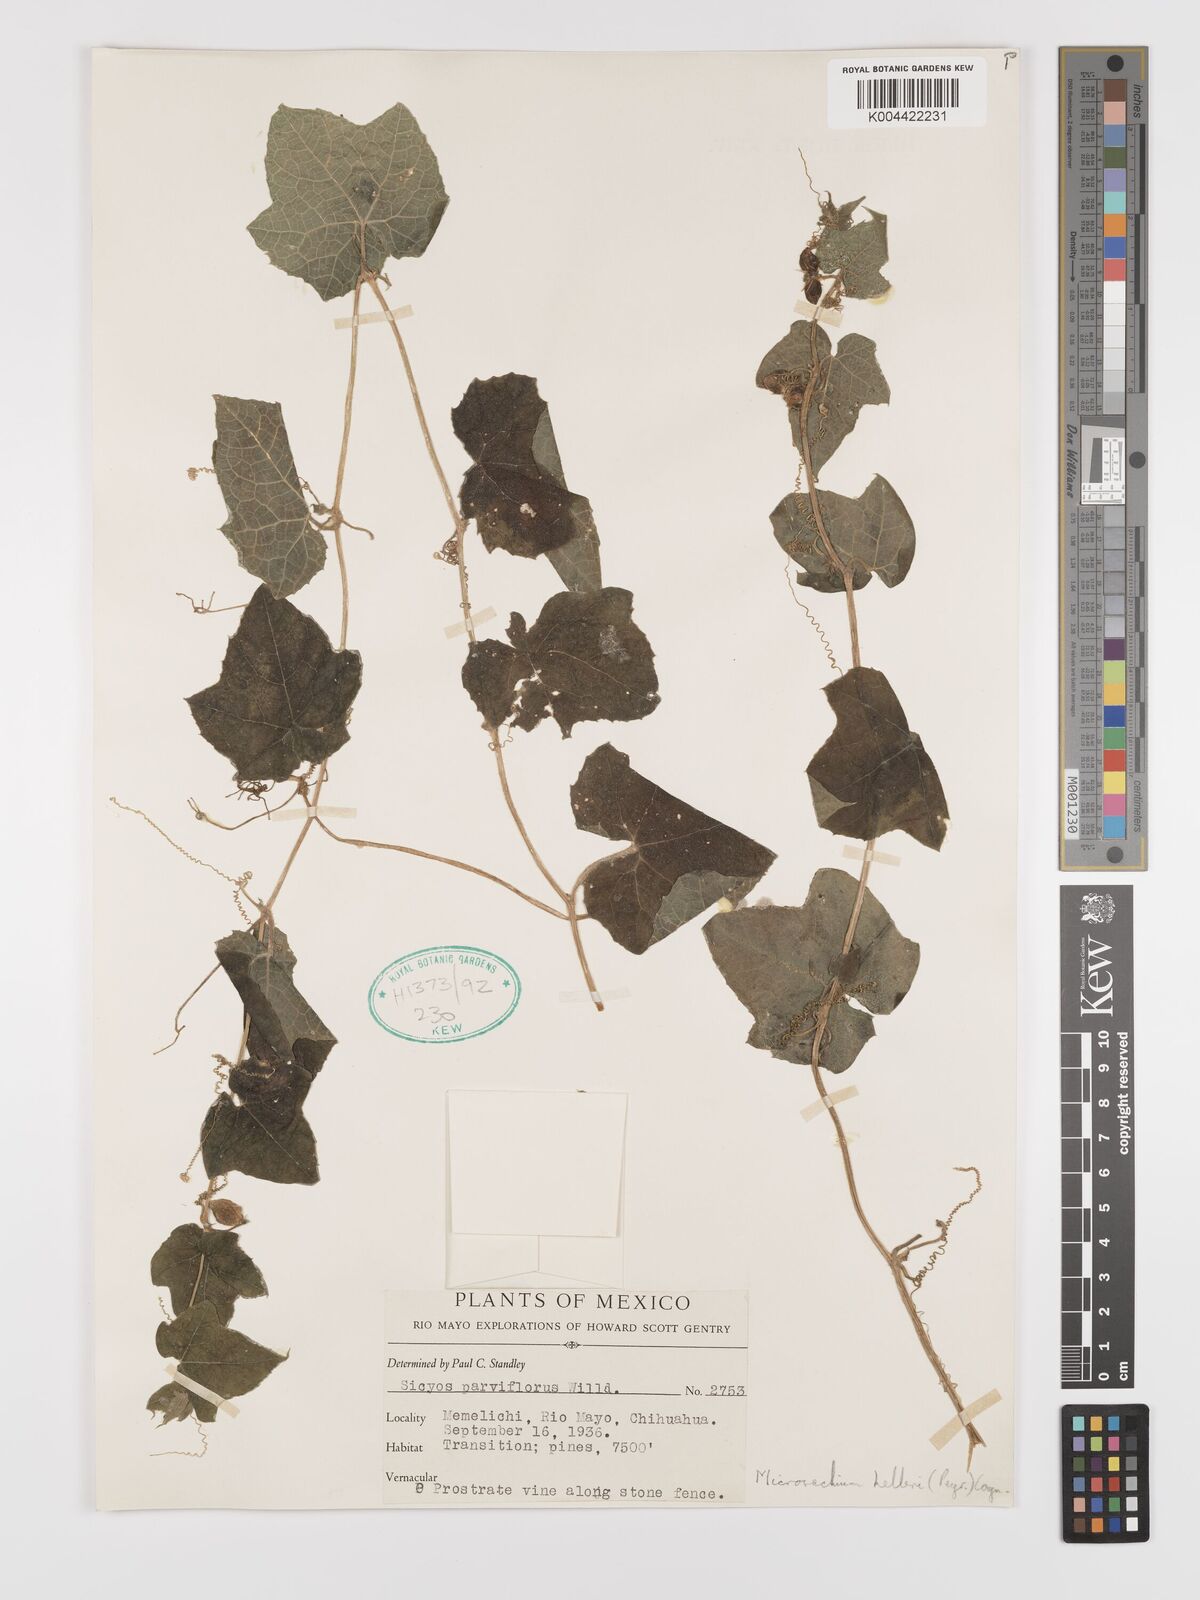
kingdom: Plantae
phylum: Tracheophyta
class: Magnoliopsida
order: Cucurbitales
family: Cucurbitaceae
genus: Microsechium
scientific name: Microsechium palmatum
